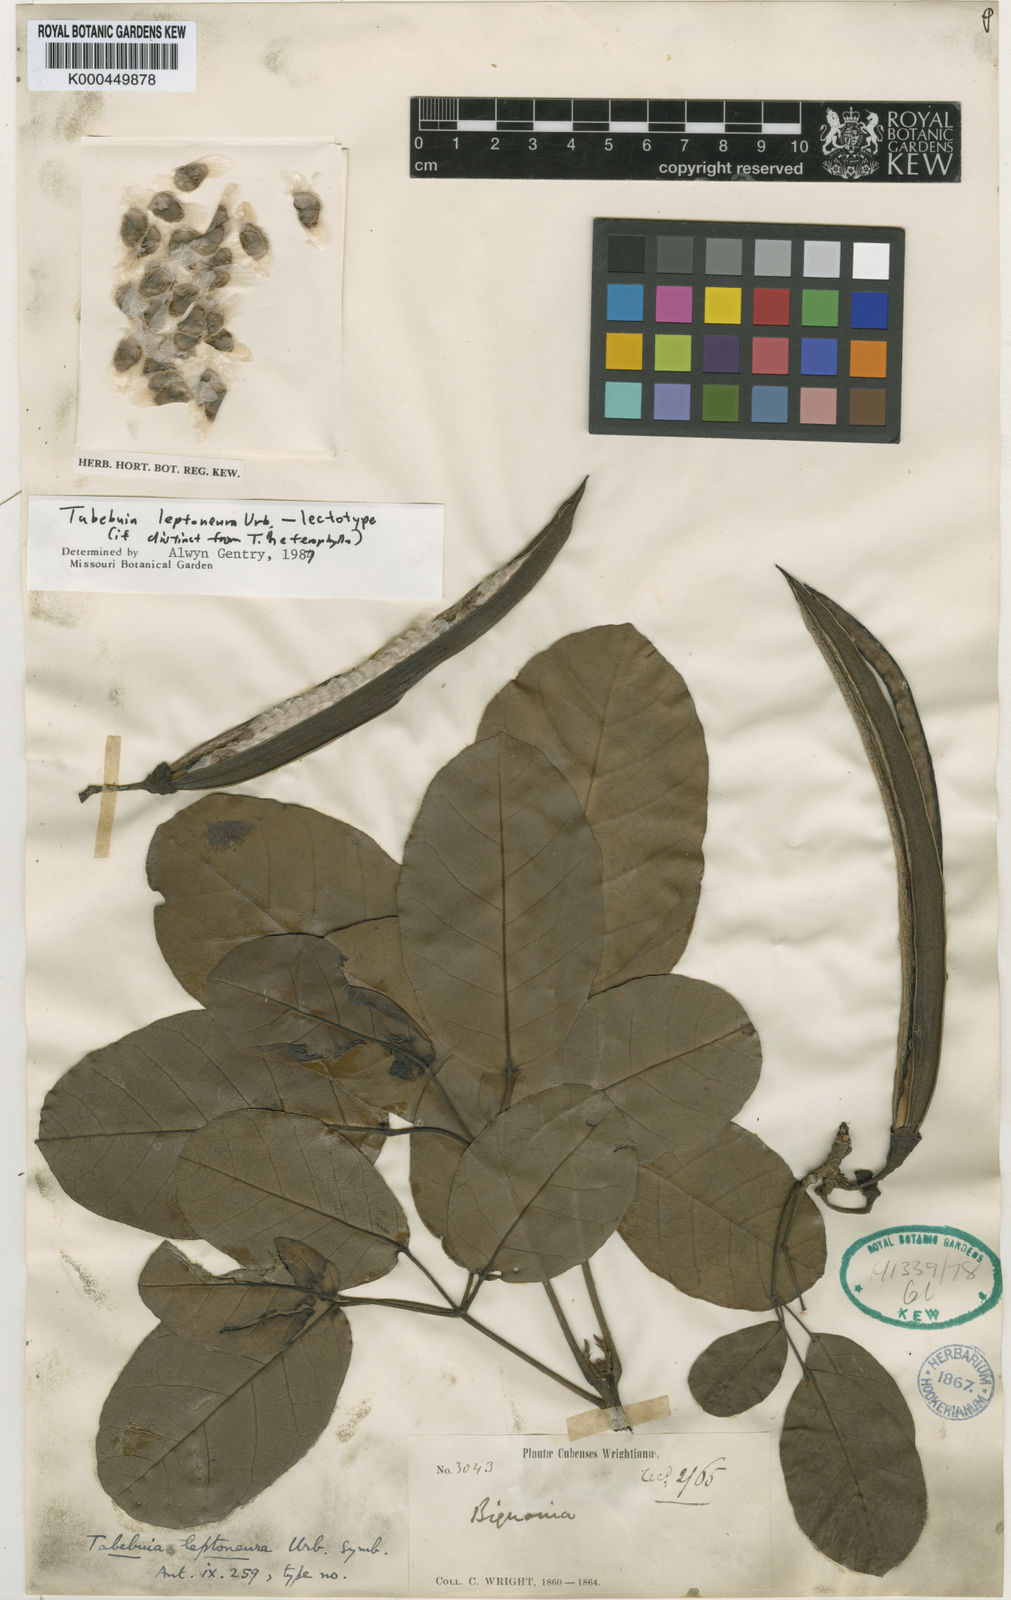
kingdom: Plantae
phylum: Tracheophyta
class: Magnoliopsida
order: Lamiales
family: Bignoniaceae
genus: Tabebuia
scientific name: Tabebuia leptoneura
